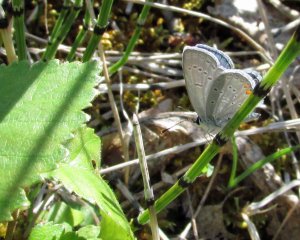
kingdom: Animalia
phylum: Arthropoda
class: Insecta
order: Lepidoptera
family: Lycaenidae
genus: Elkalyce
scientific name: Elkalyce comyntas
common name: Eastern Tailed-Blue
